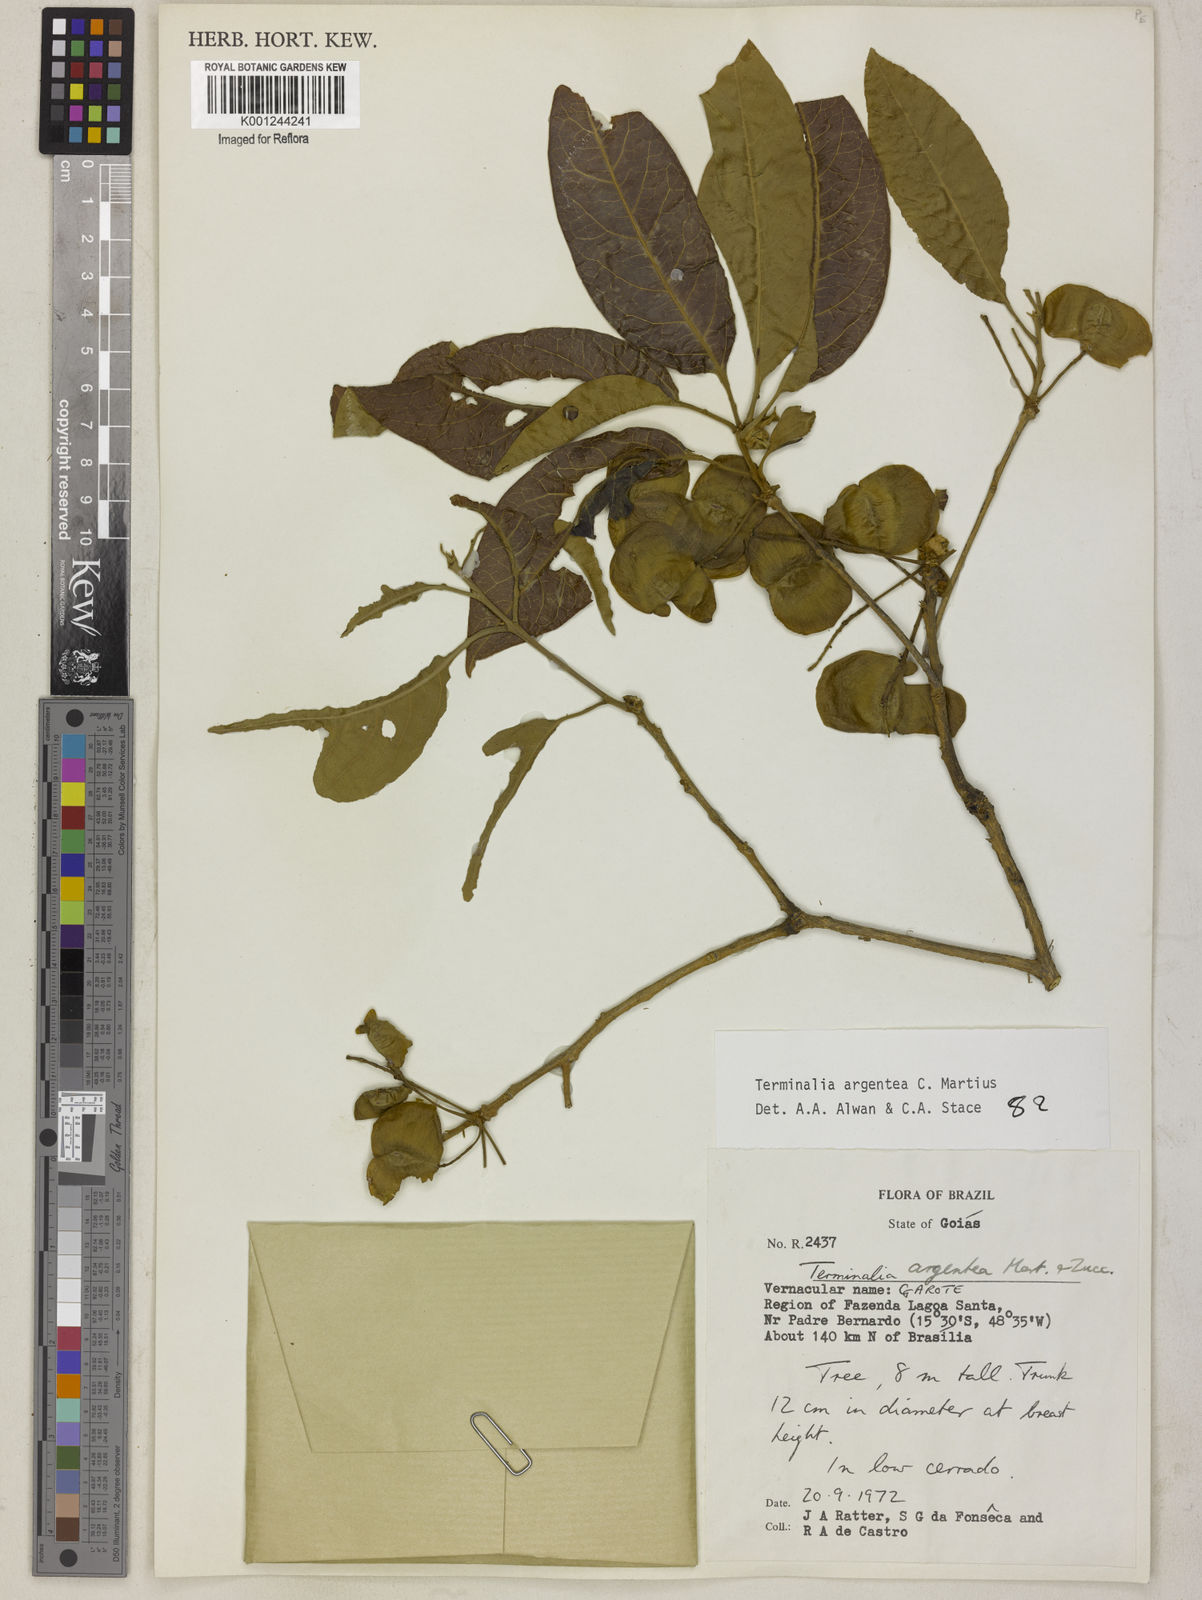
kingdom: Plantae
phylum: Tracheophyta
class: Magnoliopsida
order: Myrtales
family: Combretaceae
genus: Terminalia
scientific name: Terminalia argentea
